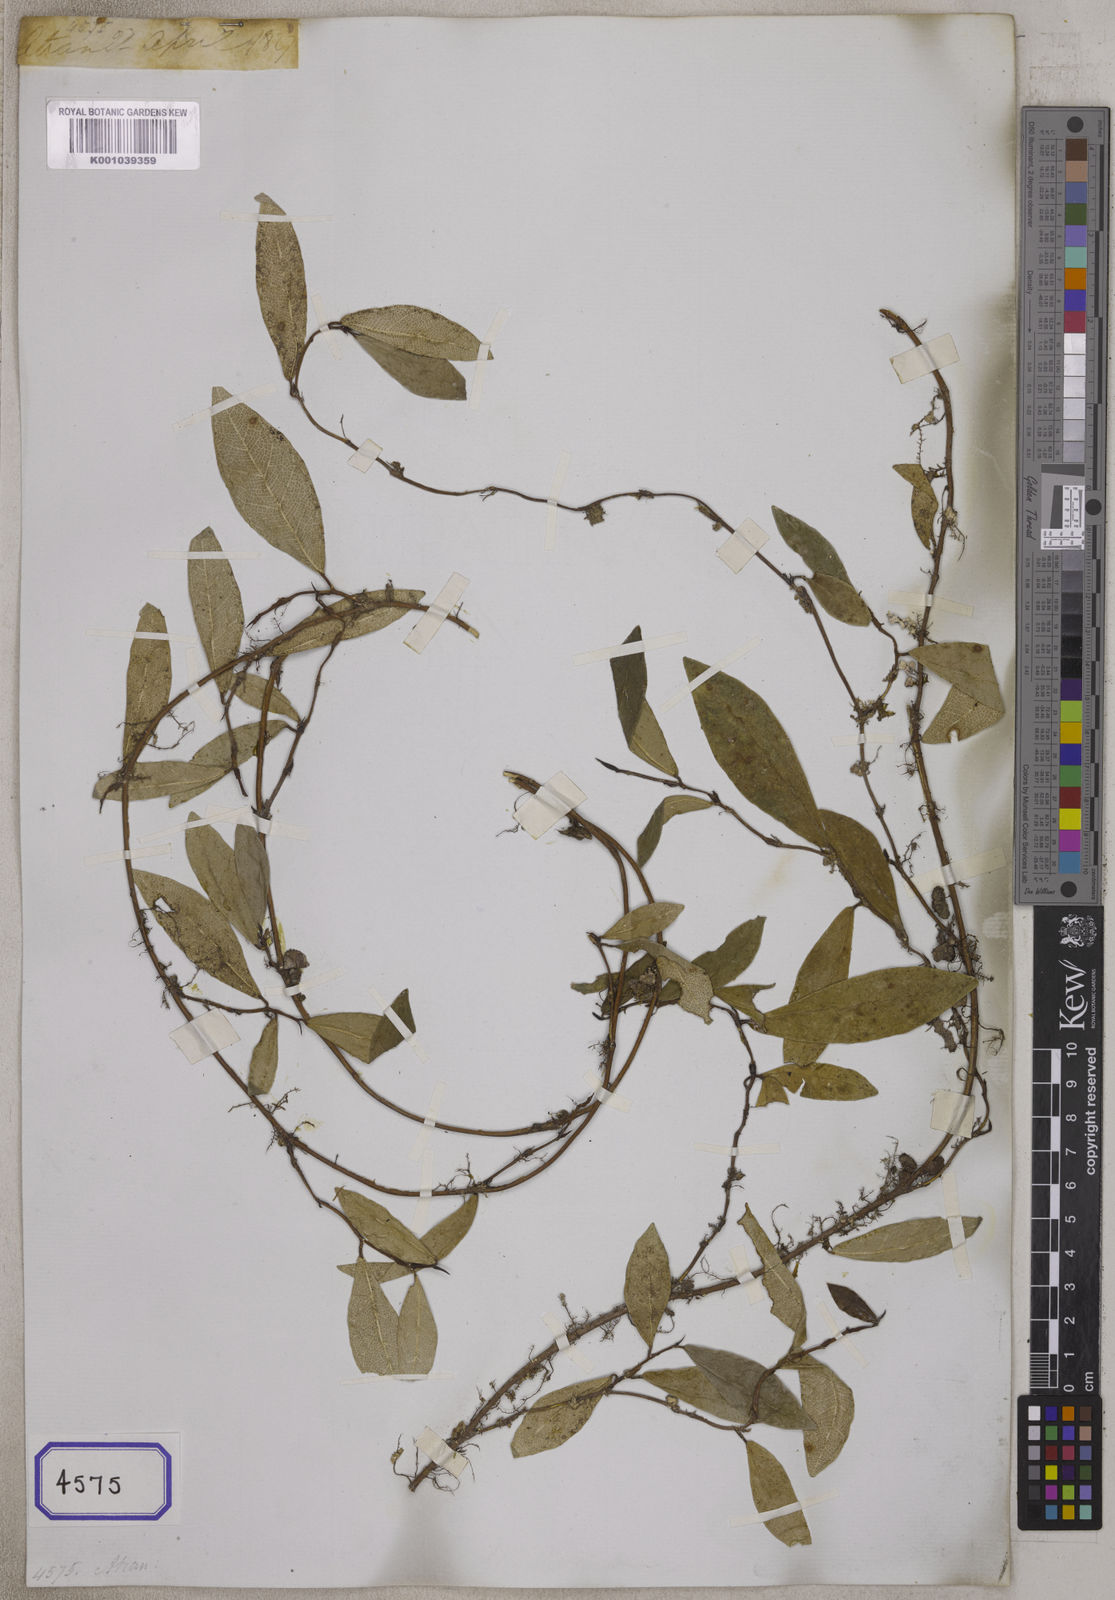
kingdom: Plantae
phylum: Tracheophyta
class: Magnoliopsida
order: Rosales
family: Moraceae
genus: Ficus
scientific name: Ficus
